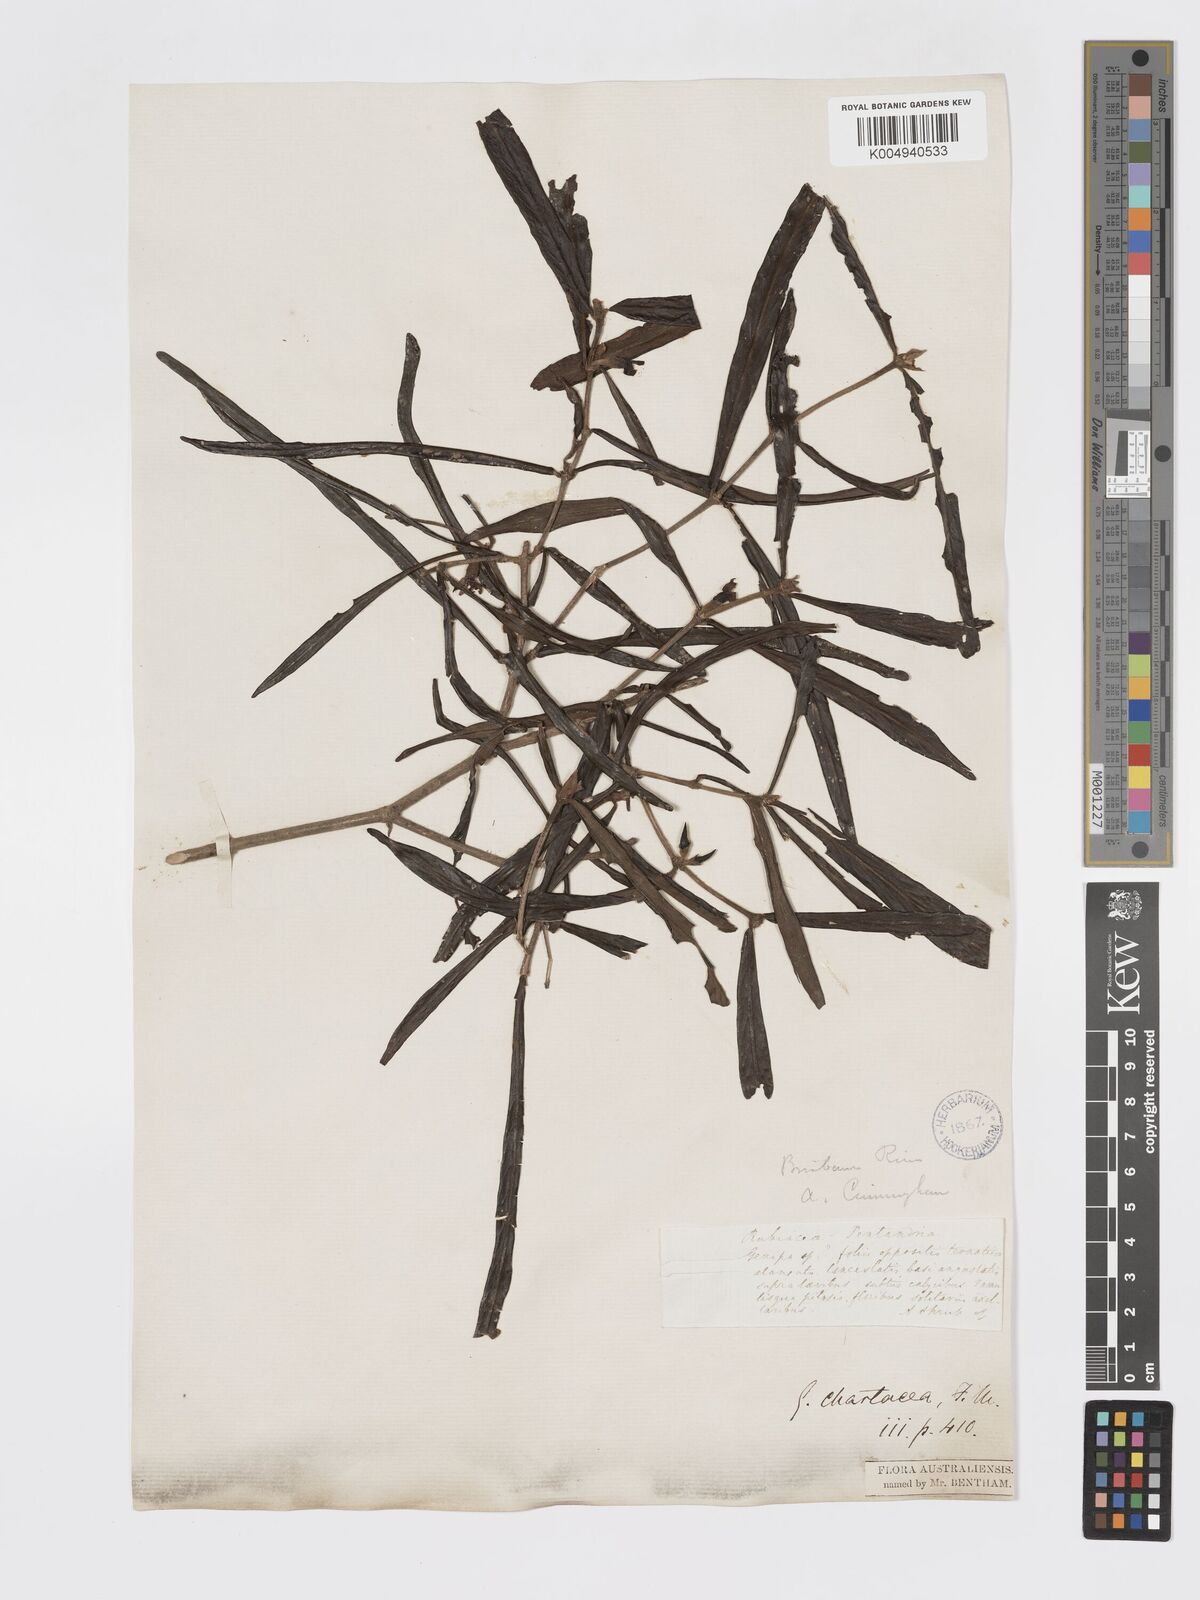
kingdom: Plantae
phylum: Tracheophyta
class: Magnoliopsida
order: Gentianales
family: Rubiaceae
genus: Atractocarpus
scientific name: Atractocarpus chartaceus
